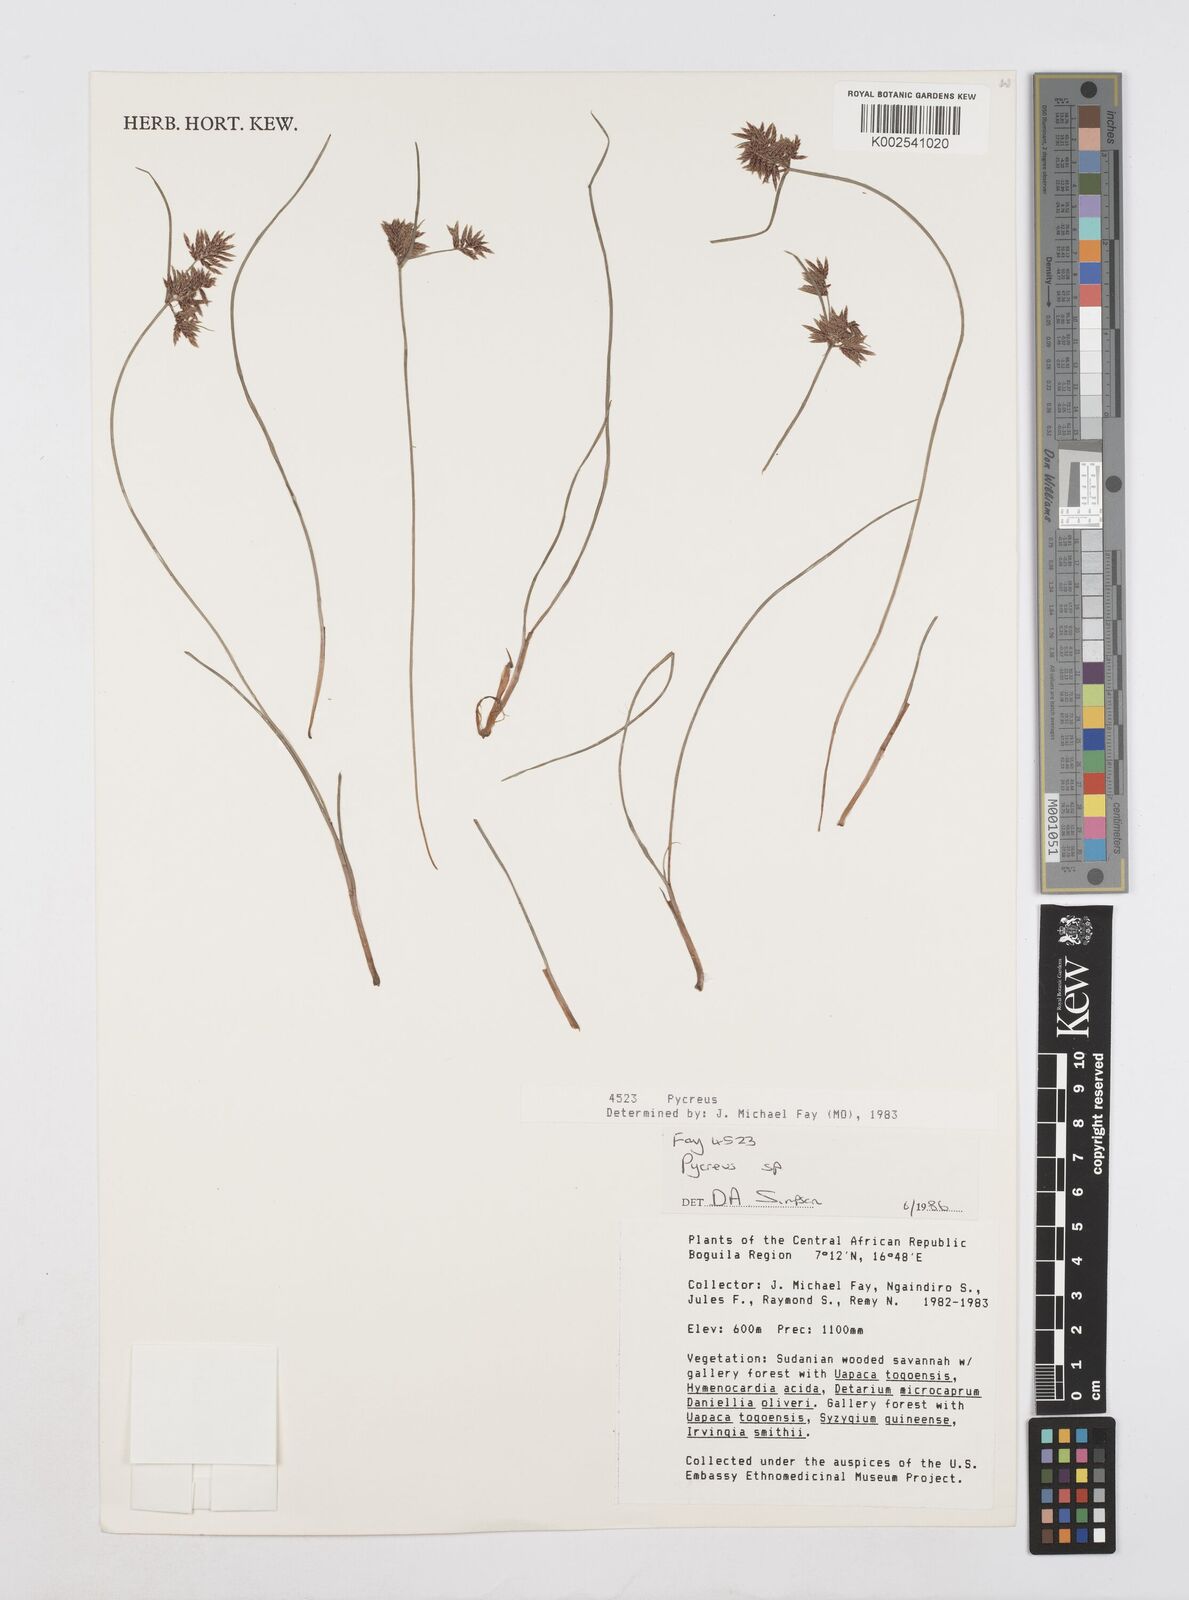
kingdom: Plantae
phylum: Tracheophyta
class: Liliopsida
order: Poales
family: Cyperaceae
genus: Cyperus
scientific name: Cyperus
